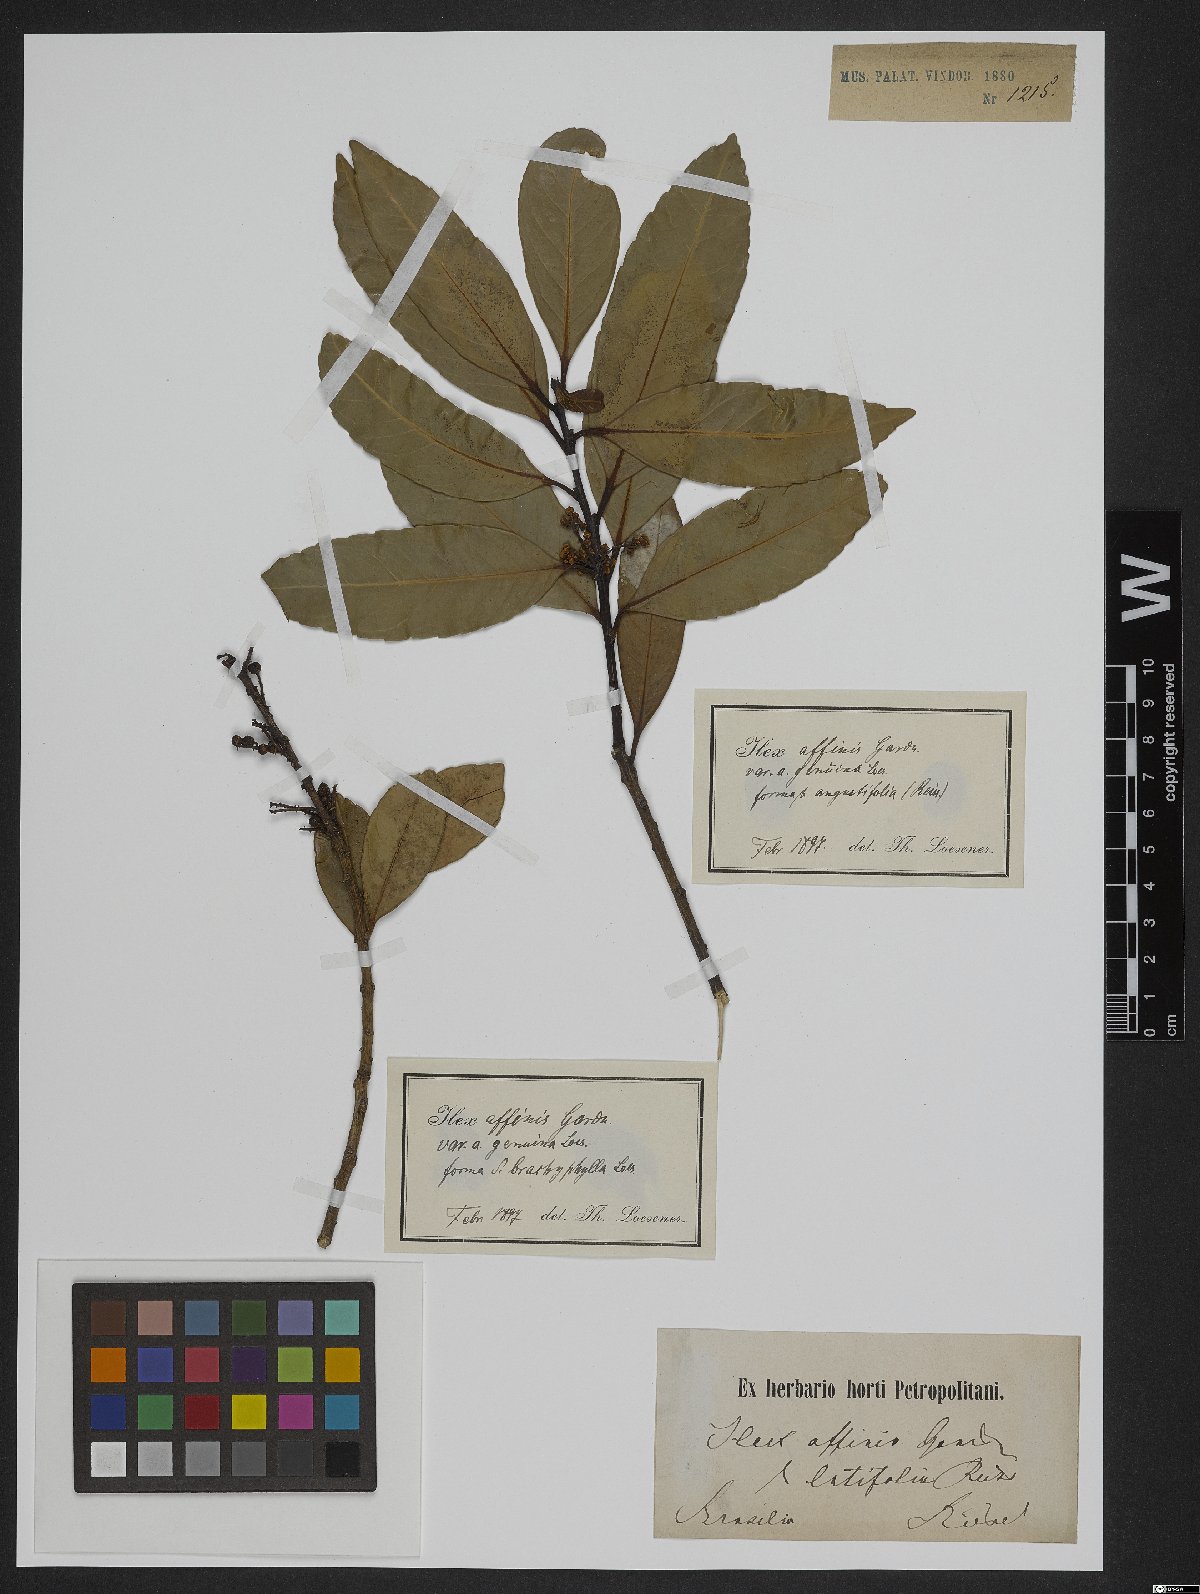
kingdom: Plantae
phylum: Tracheophyta
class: Magnoliopsida
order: Aquifoliales
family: Aquifoliaceae
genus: Ilex
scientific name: Ilex affinis
